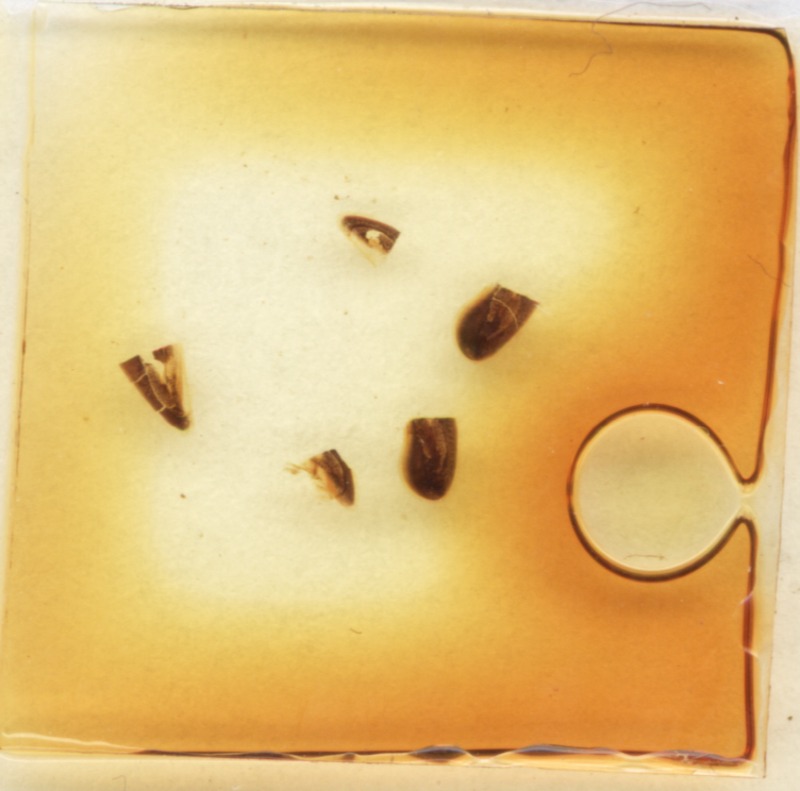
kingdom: Animalia
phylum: Arthropoda
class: Diplopoda
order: Glomerida
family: Glomeridae
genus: Hyleoglomeris
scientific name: Hyleoglomeris nigra
